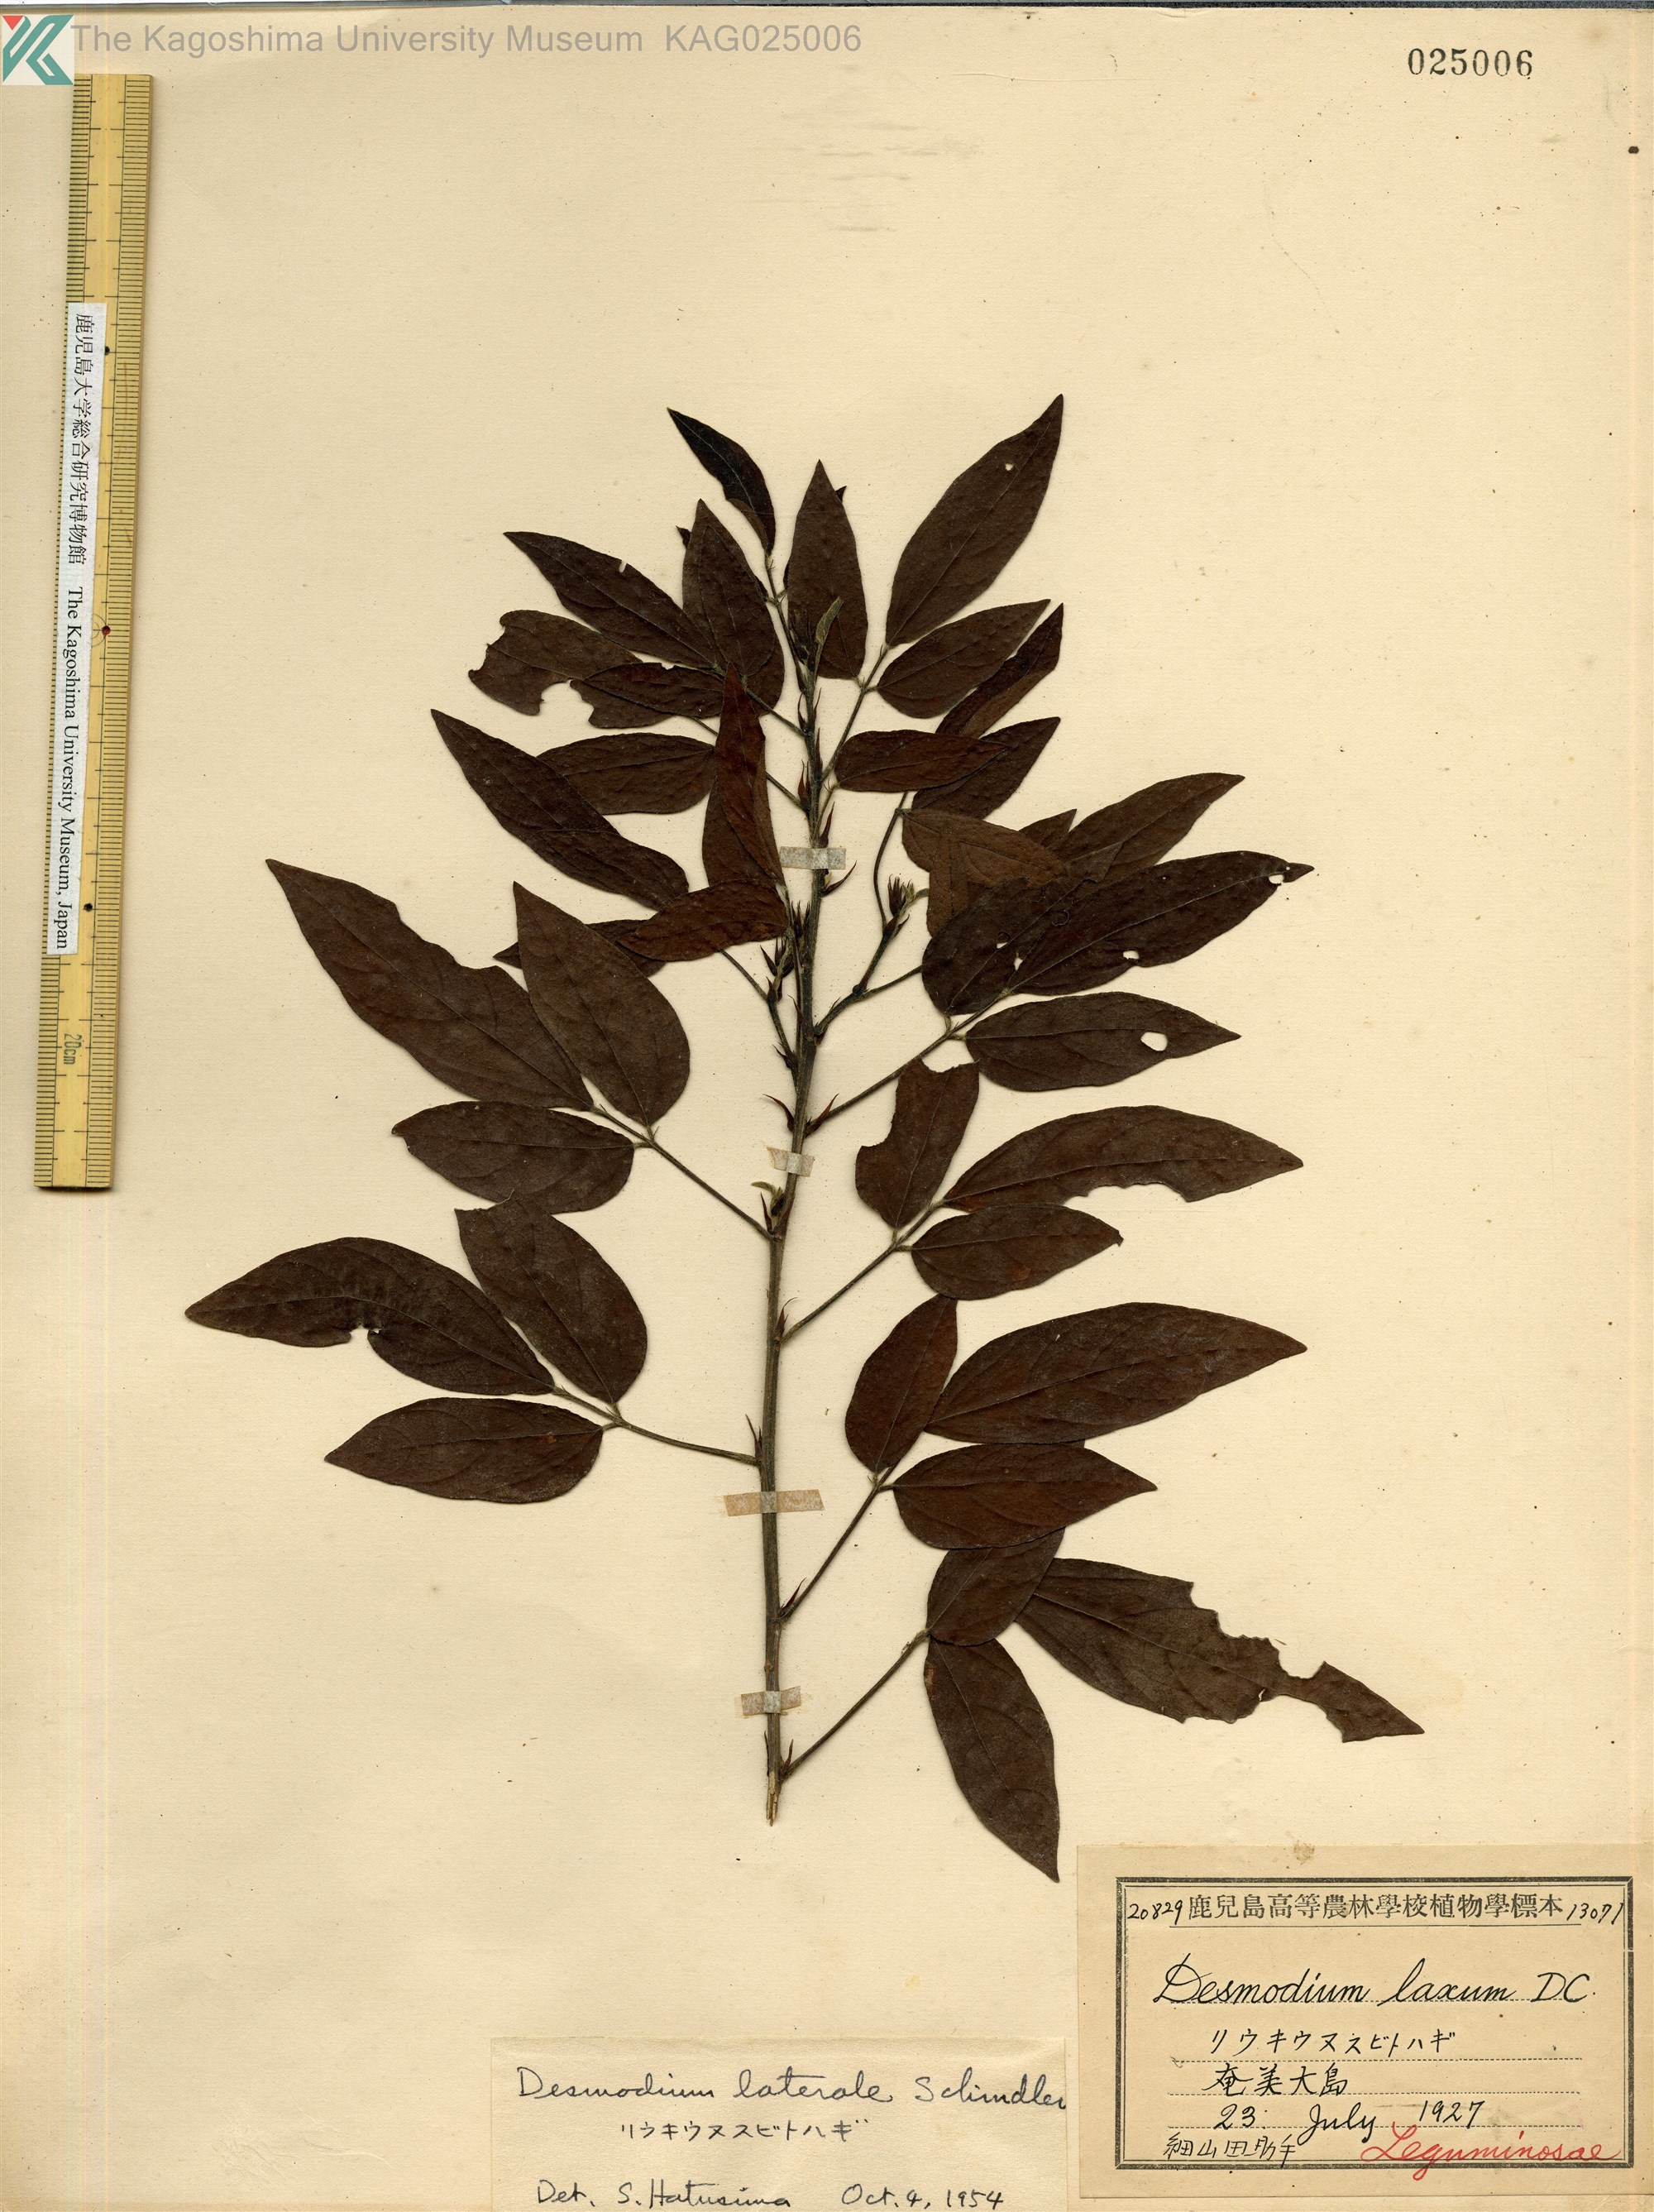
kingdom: Plantae
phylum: Tracheophyta
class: Magnoliopsida
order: Fabales
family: Fabaceae
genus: Hylodesmum
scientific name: Hylodesmum laterale
